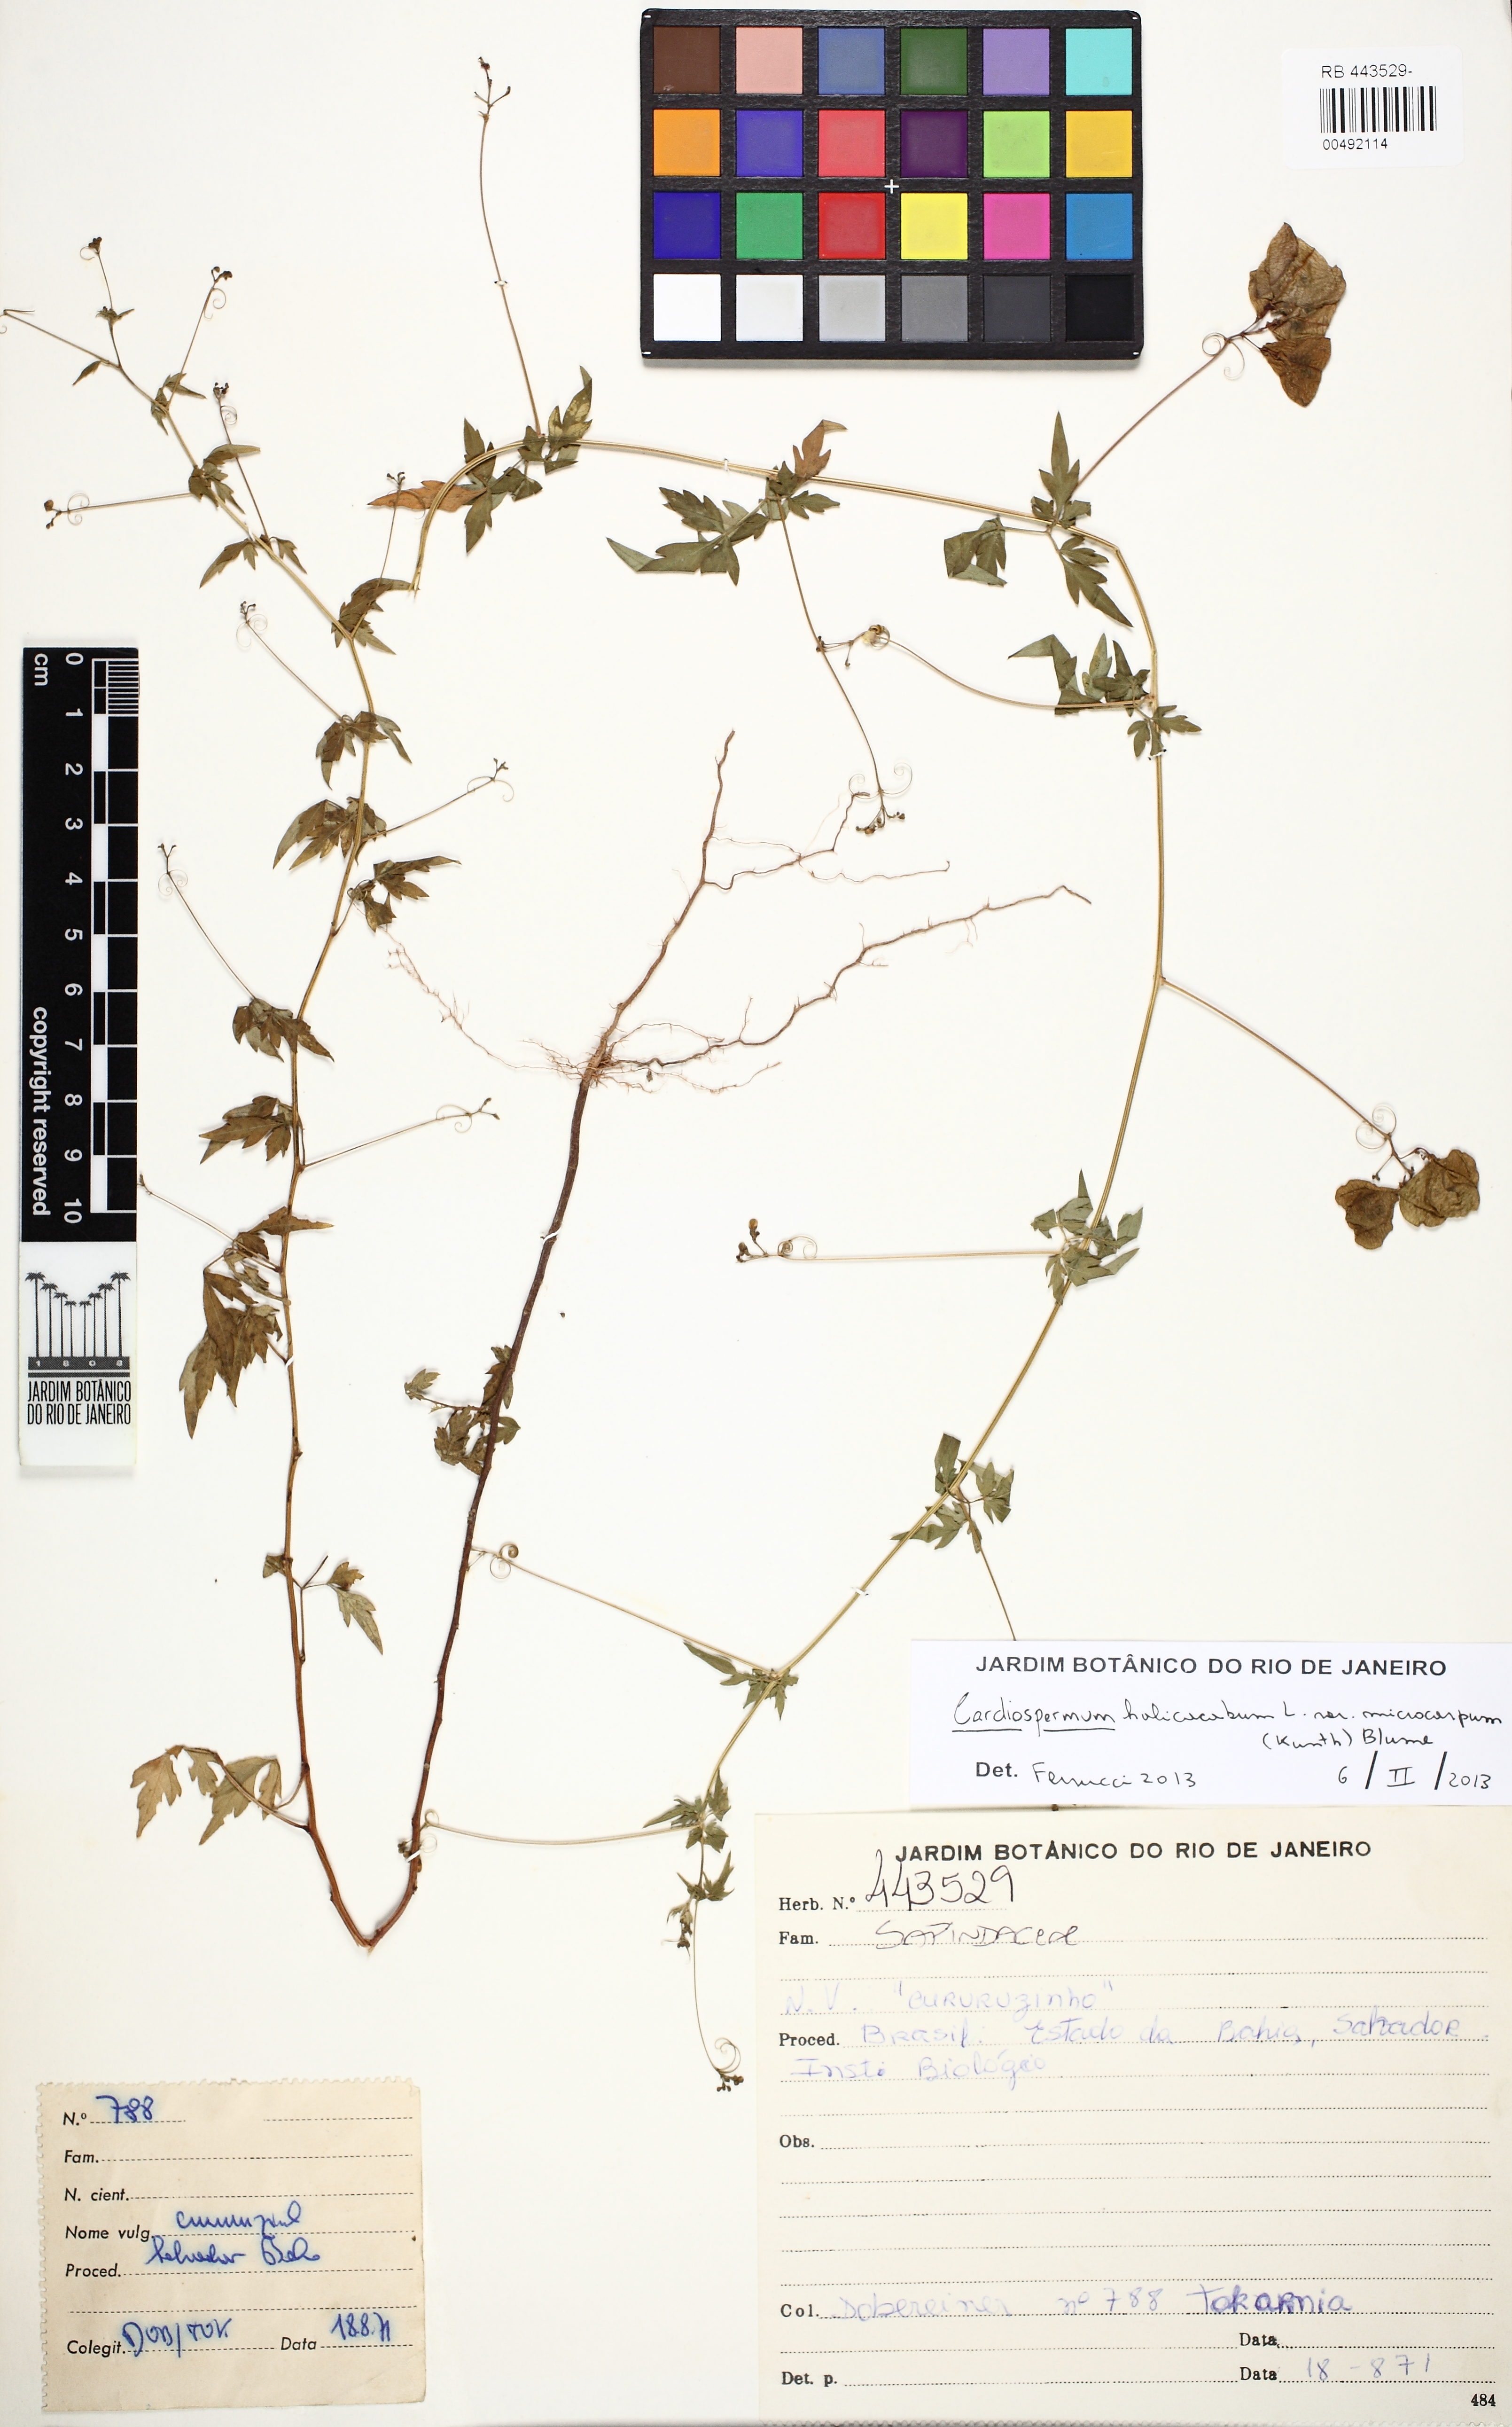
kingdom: Plantae
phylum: Tracheophyta
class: Magnoliopsida
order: Sapindales
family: Sapindaceae
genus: Cardiospermum
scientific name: Cardiospermum microcarpum
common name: Heart seed
